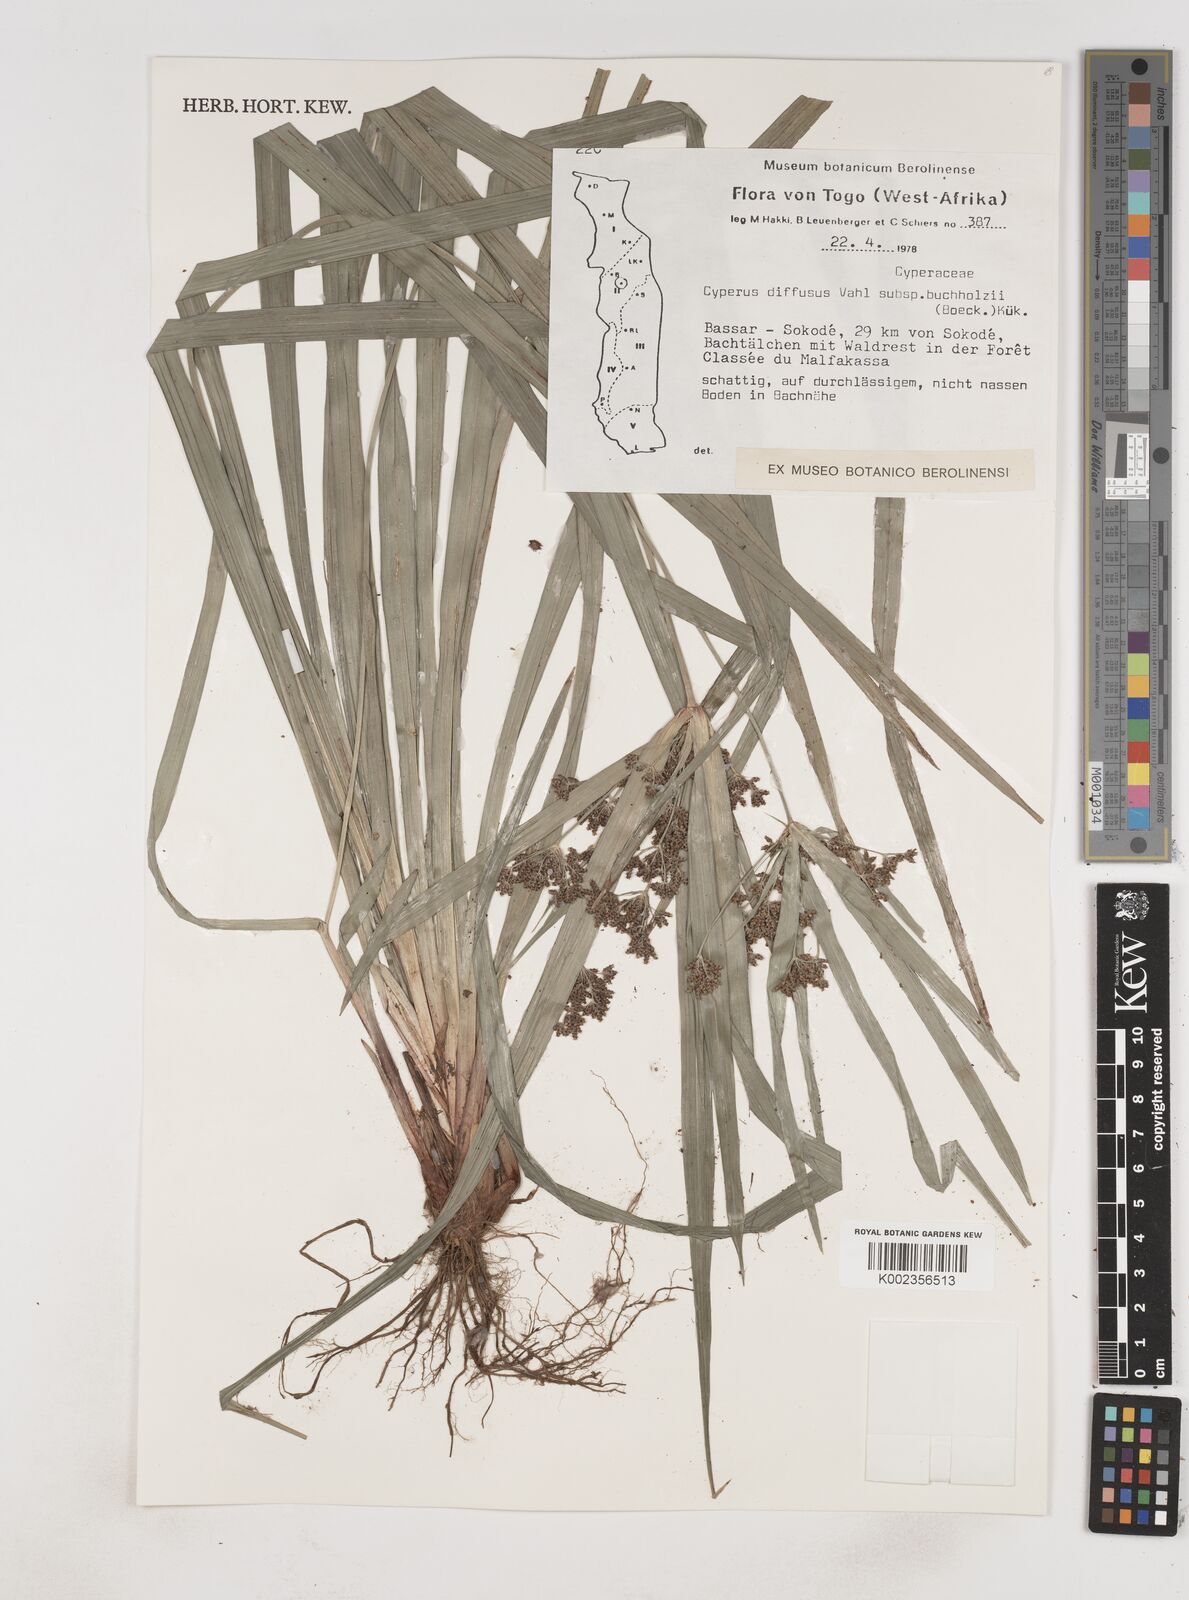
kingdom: Plantae
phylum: Tracheophyta
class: Liliopsida
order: Poales
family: Cyperaceae
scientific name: Cyperaceae
